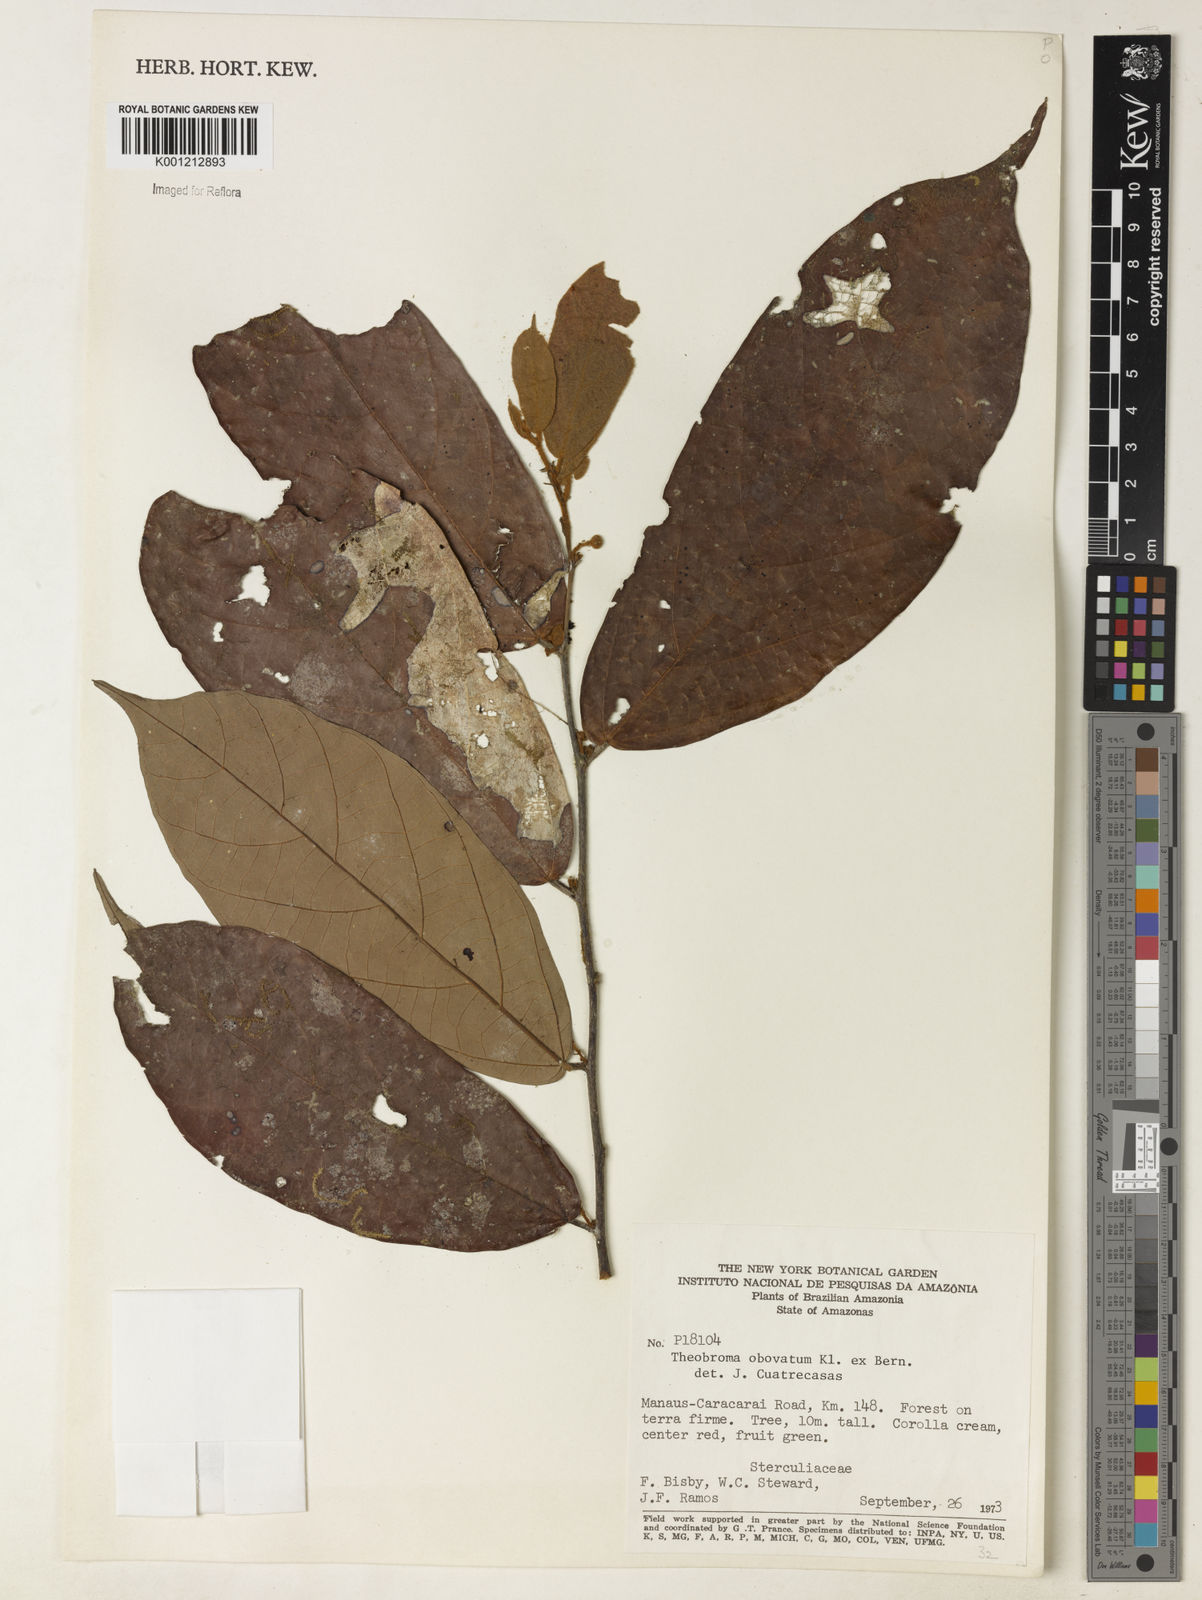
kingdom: Plantae
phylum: Tracheophyta
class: Magnoliopsida
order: Malvales
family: Malvaceae
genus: Theobroma
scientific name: Theobroma obovatum
